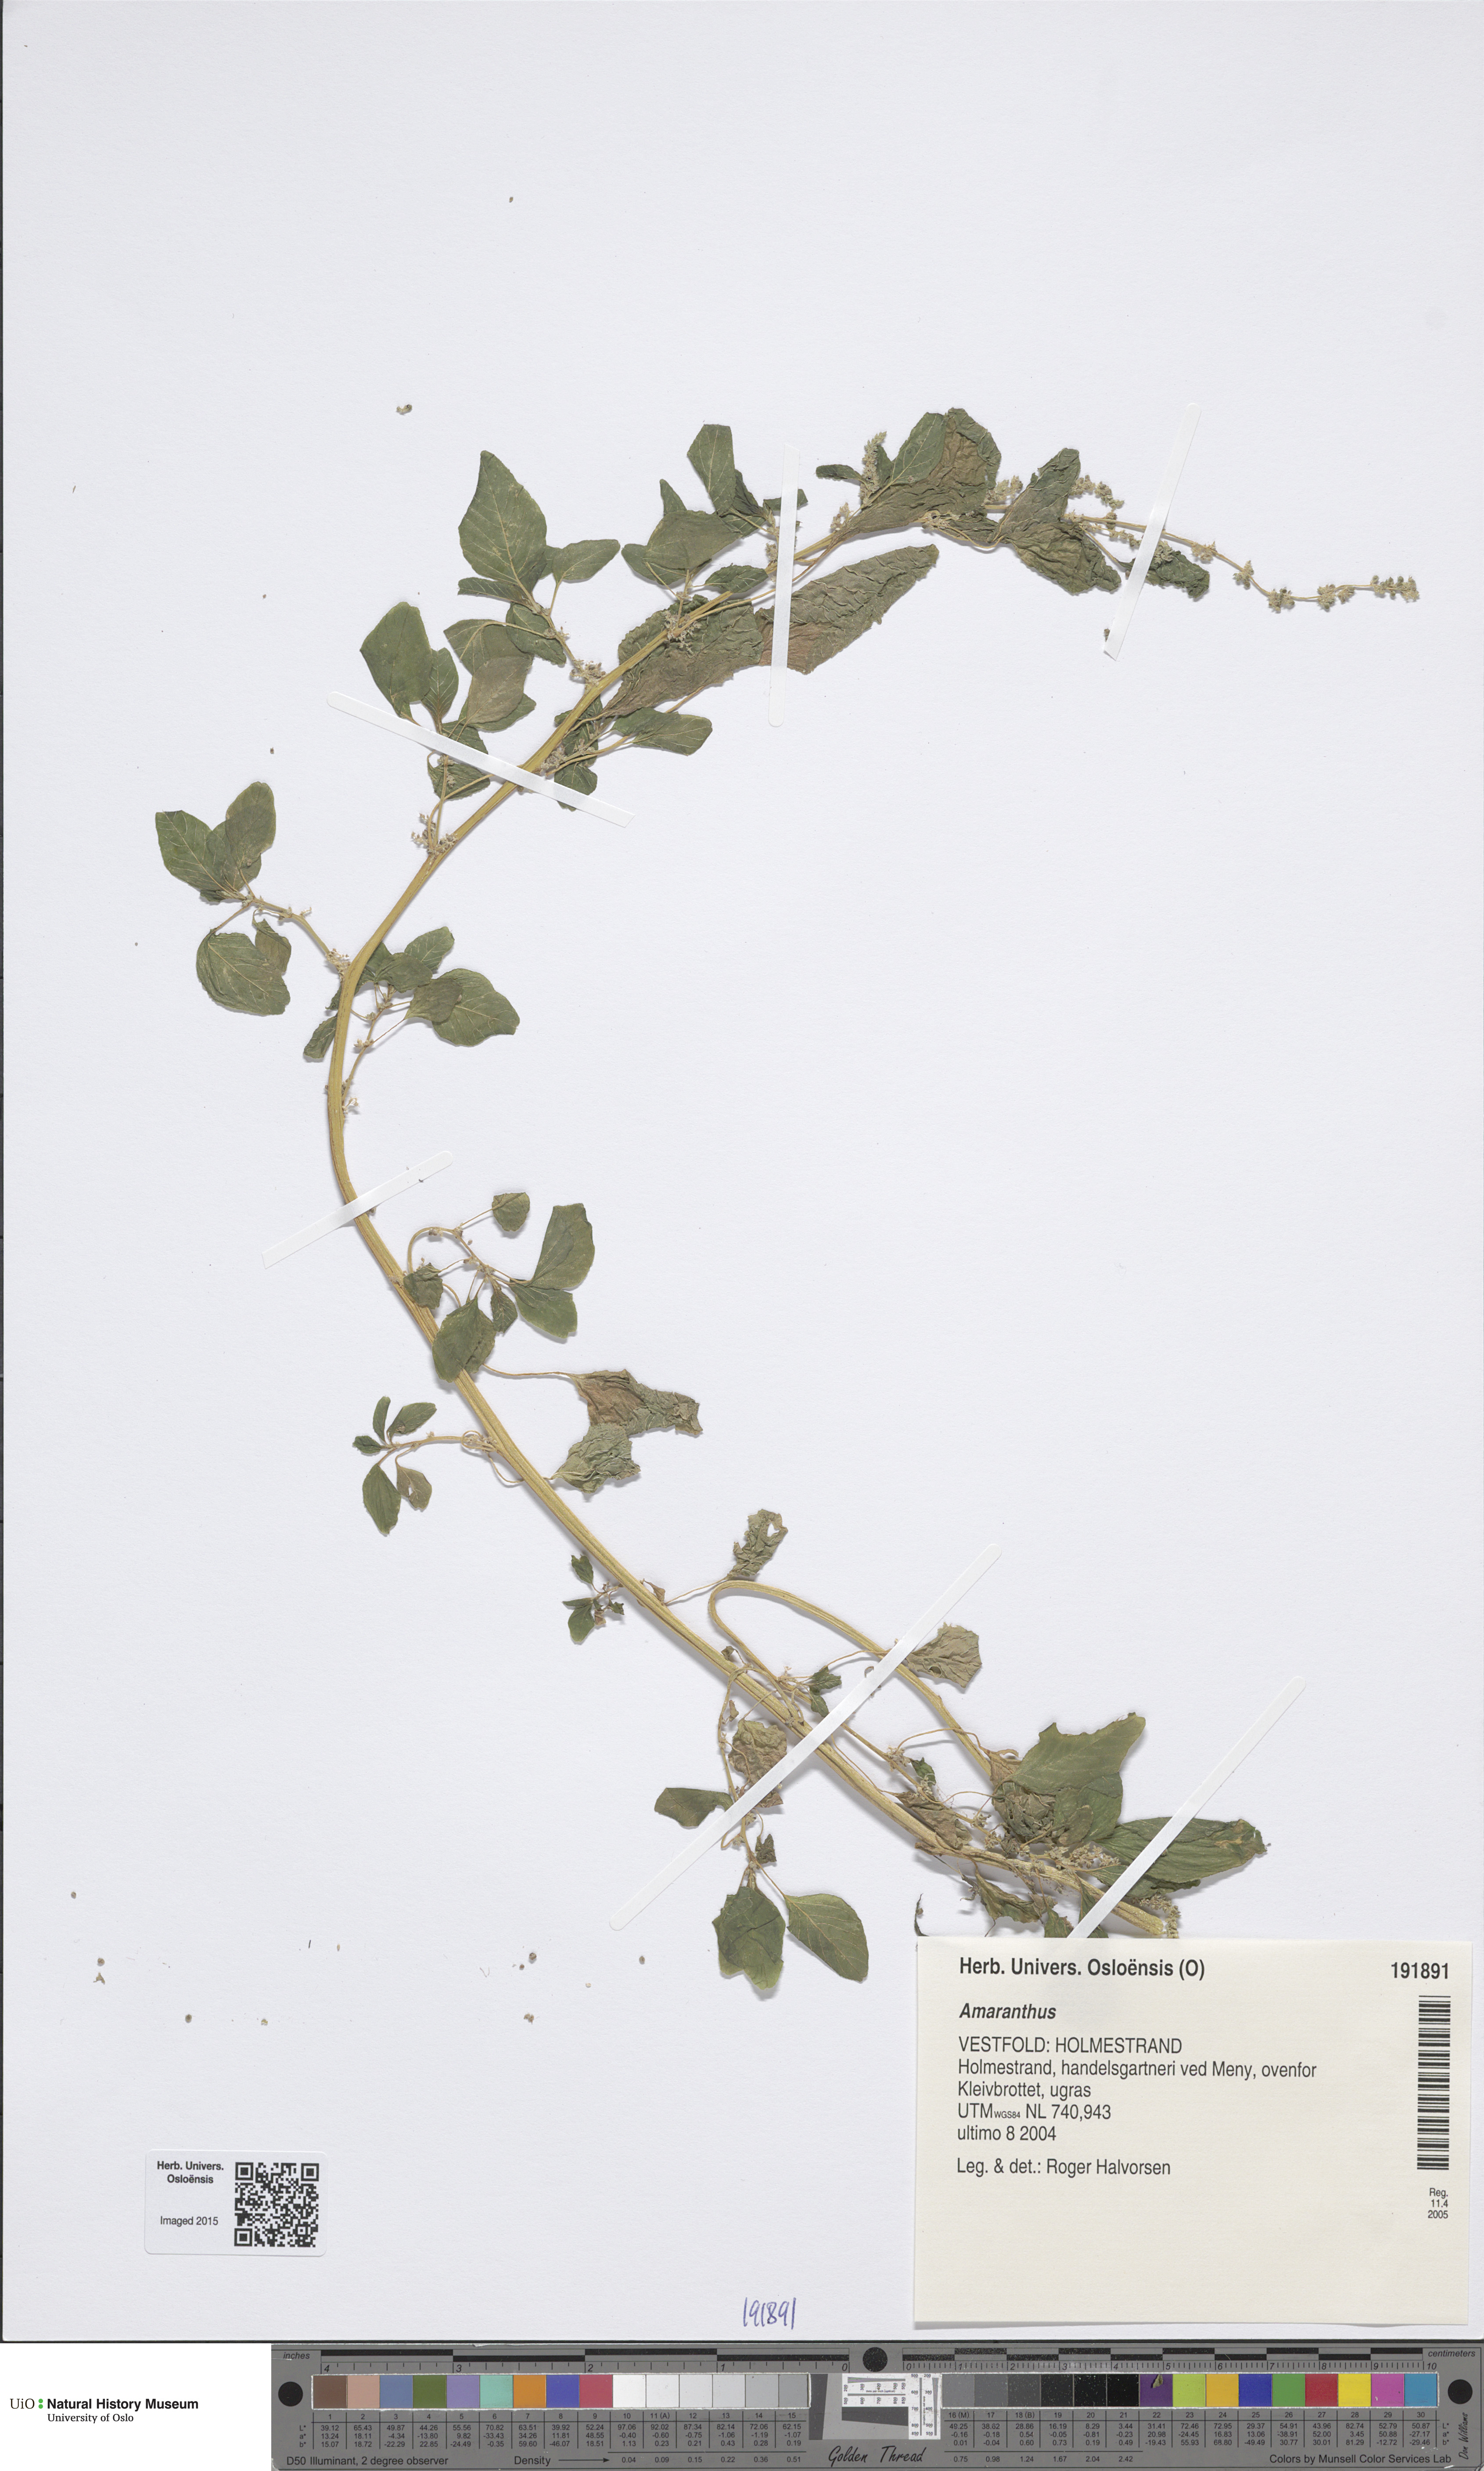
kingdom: Plantae
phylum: Tracheophyta
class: Magnoliopsida
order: Caryophyllales
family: Amaranthaceae
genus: Amaranthus
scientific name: Amaranthus
